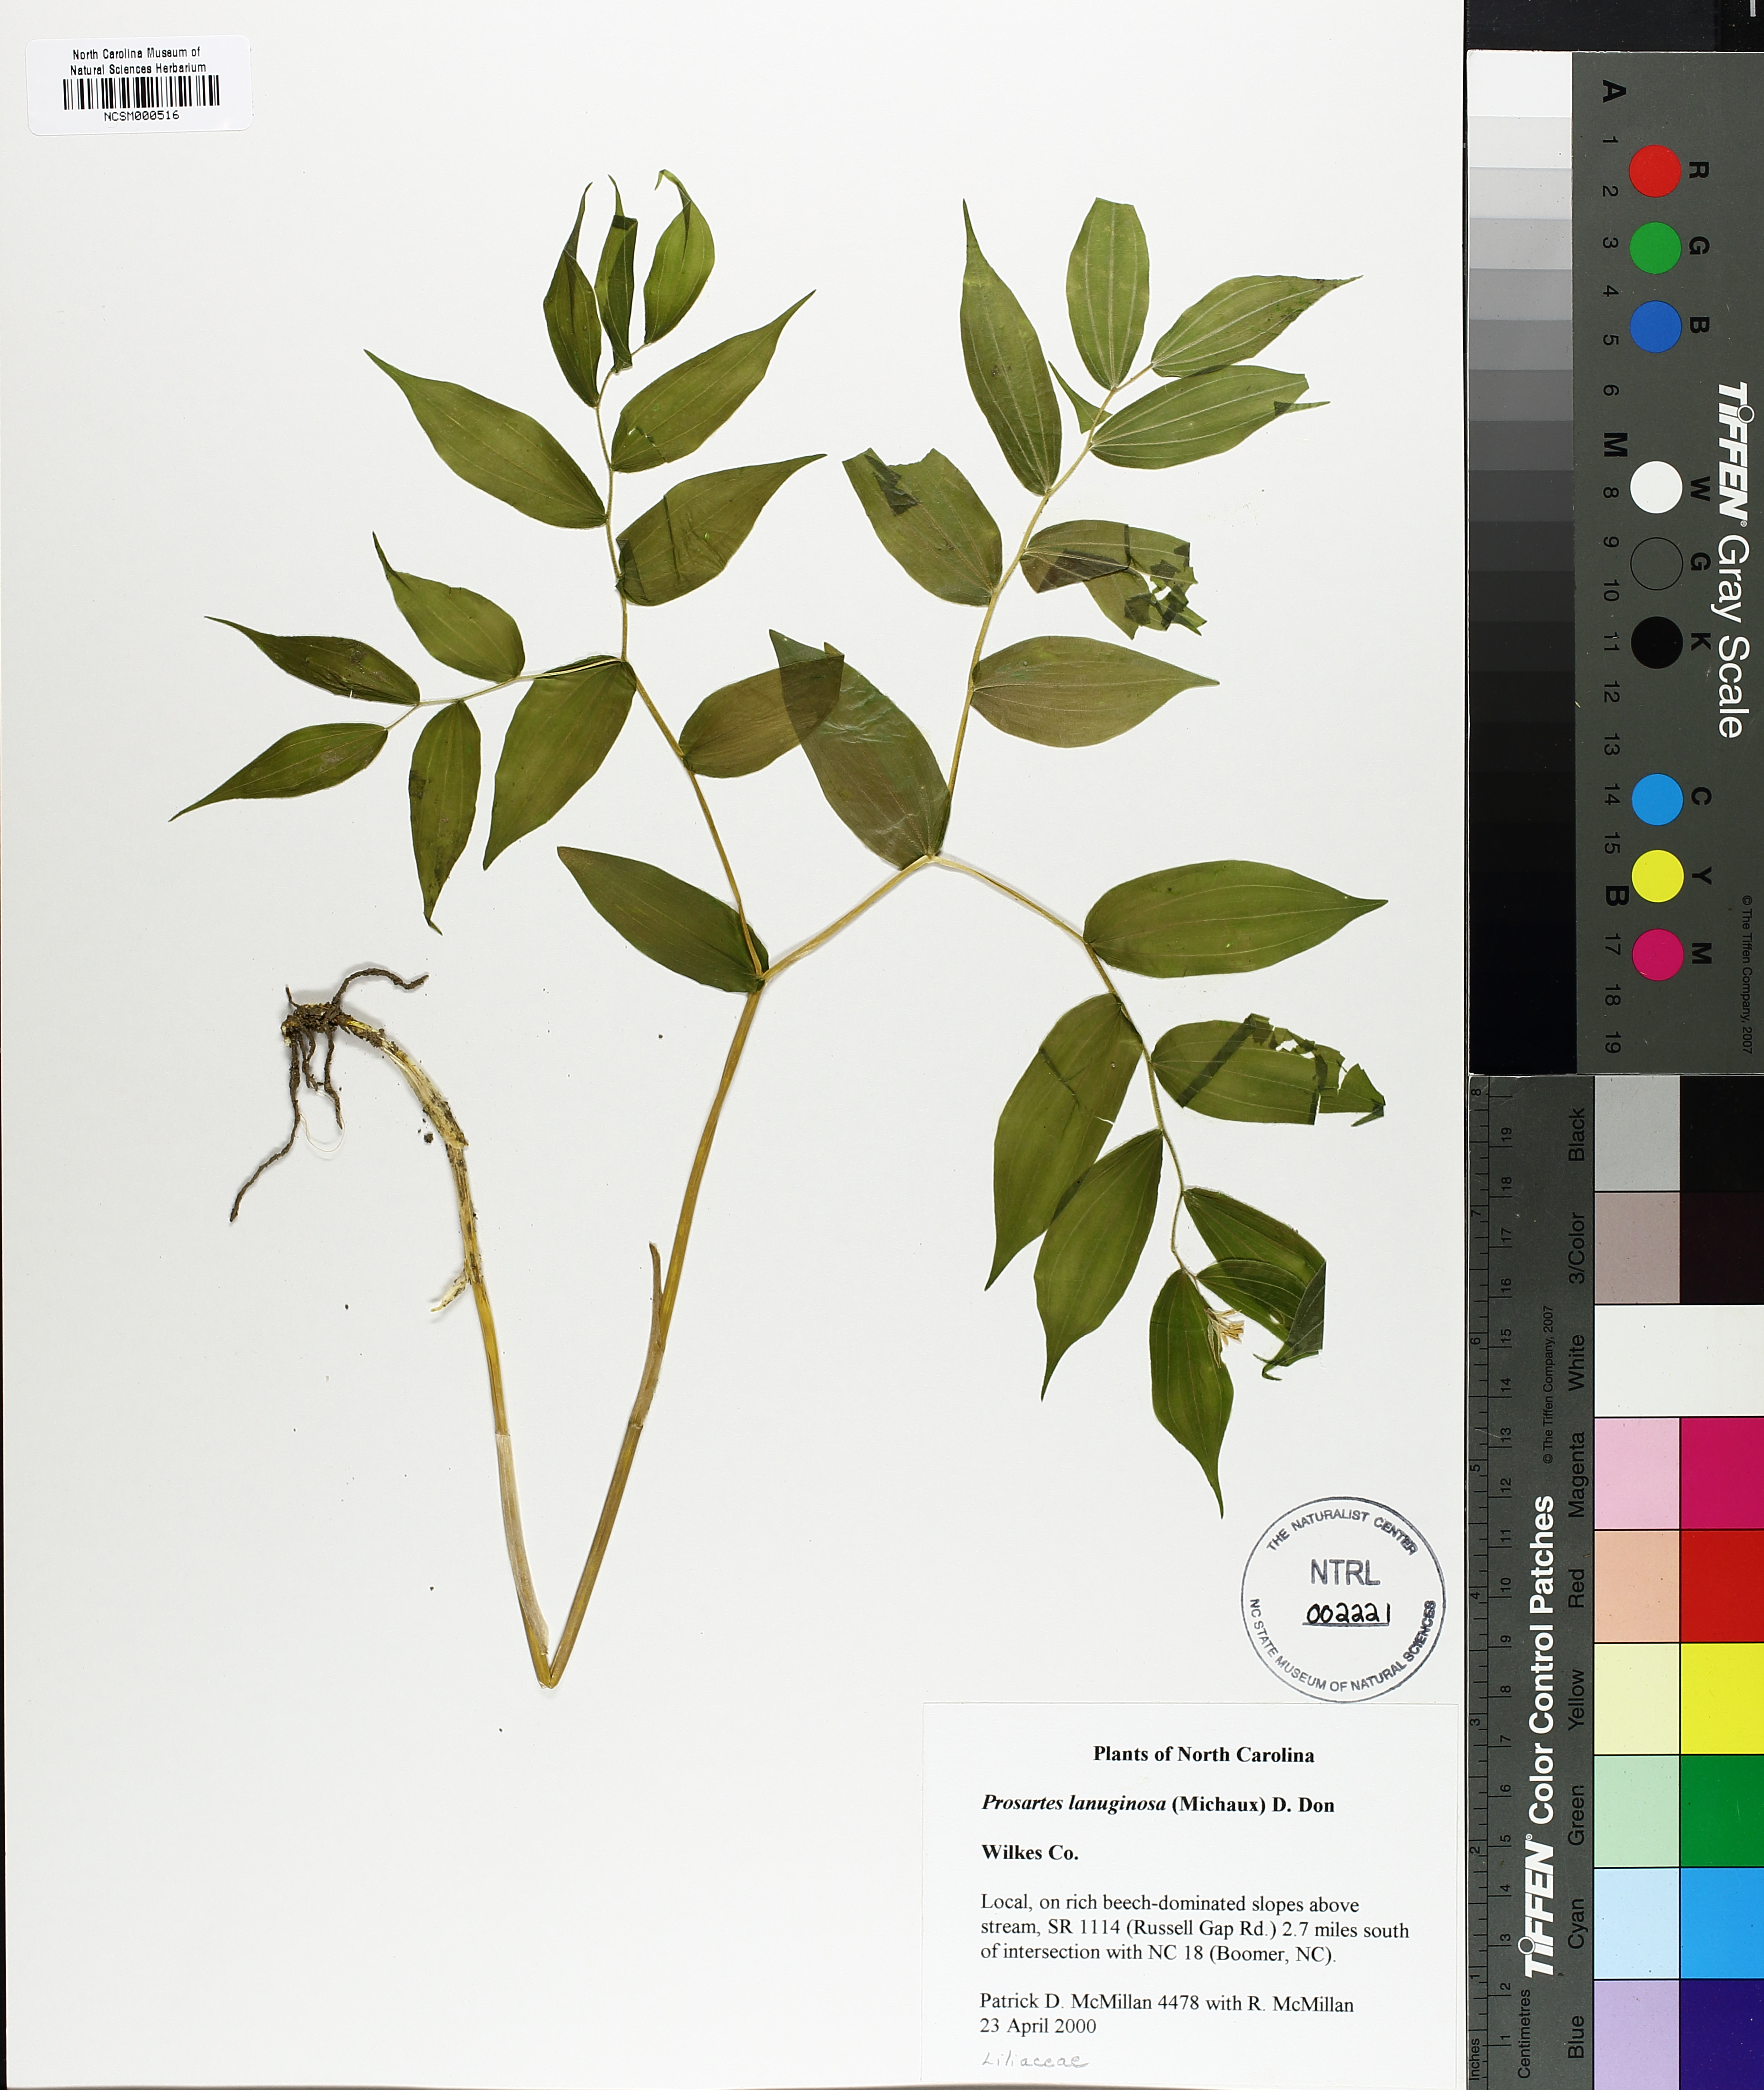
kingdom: Plantae
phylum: Tracheophyta
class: Liliopsida
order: Liliales
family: Liliaceae
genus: Prosartes
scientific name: Prosartes lanuginosa
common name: Hairy mandarin
